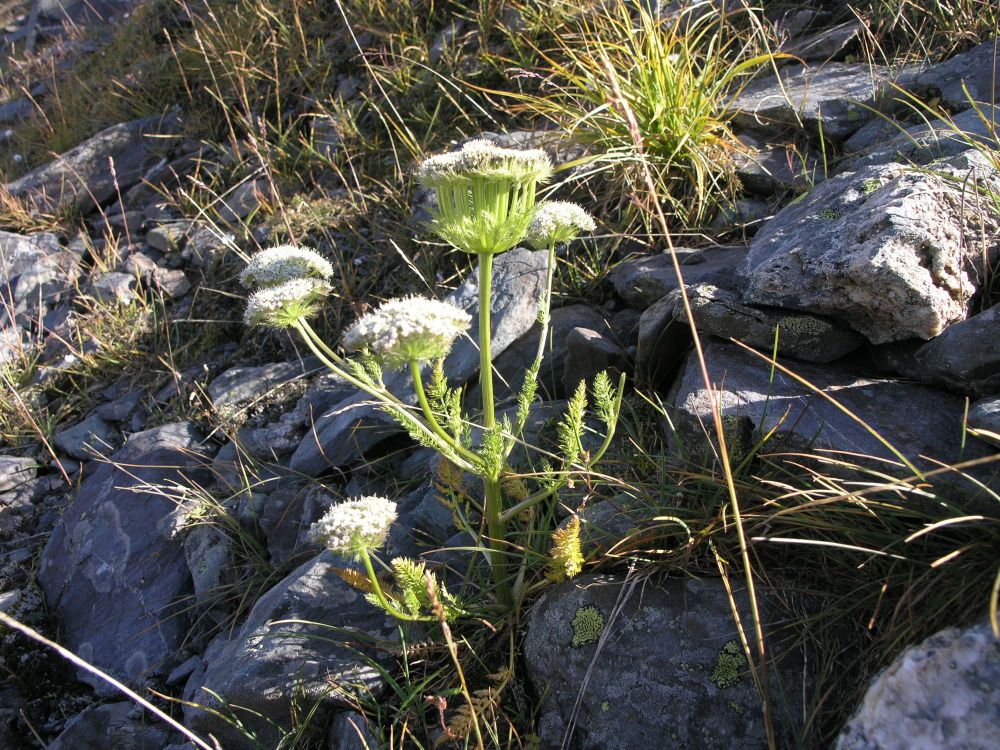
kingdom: Plantae
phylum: Tracheophyta
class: Magnoliopsida
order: Apiales
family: Apiaceae
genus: Schulzia
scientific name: Schulzia crinita
